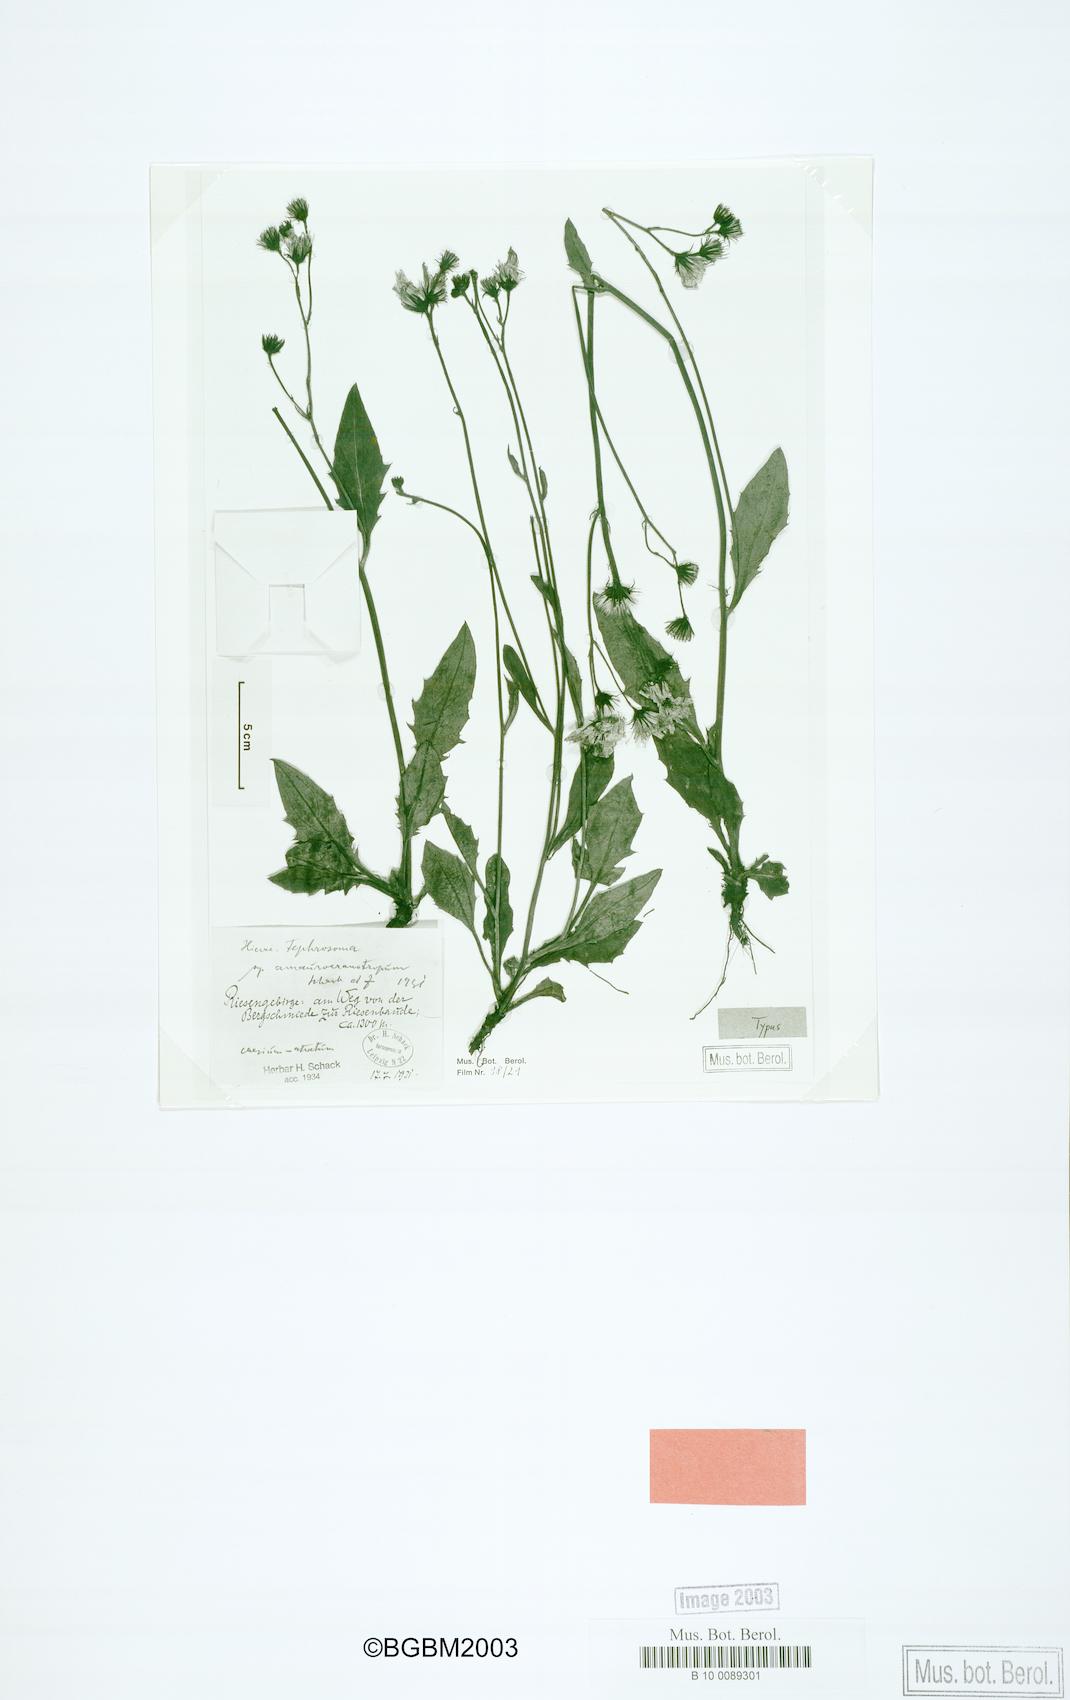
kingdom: Plantae
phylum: Tracheophyta
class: Magnoliopsida
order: Asterales
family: Asteraceae
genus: Hieracium
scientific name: Hieracium tephrosoma
